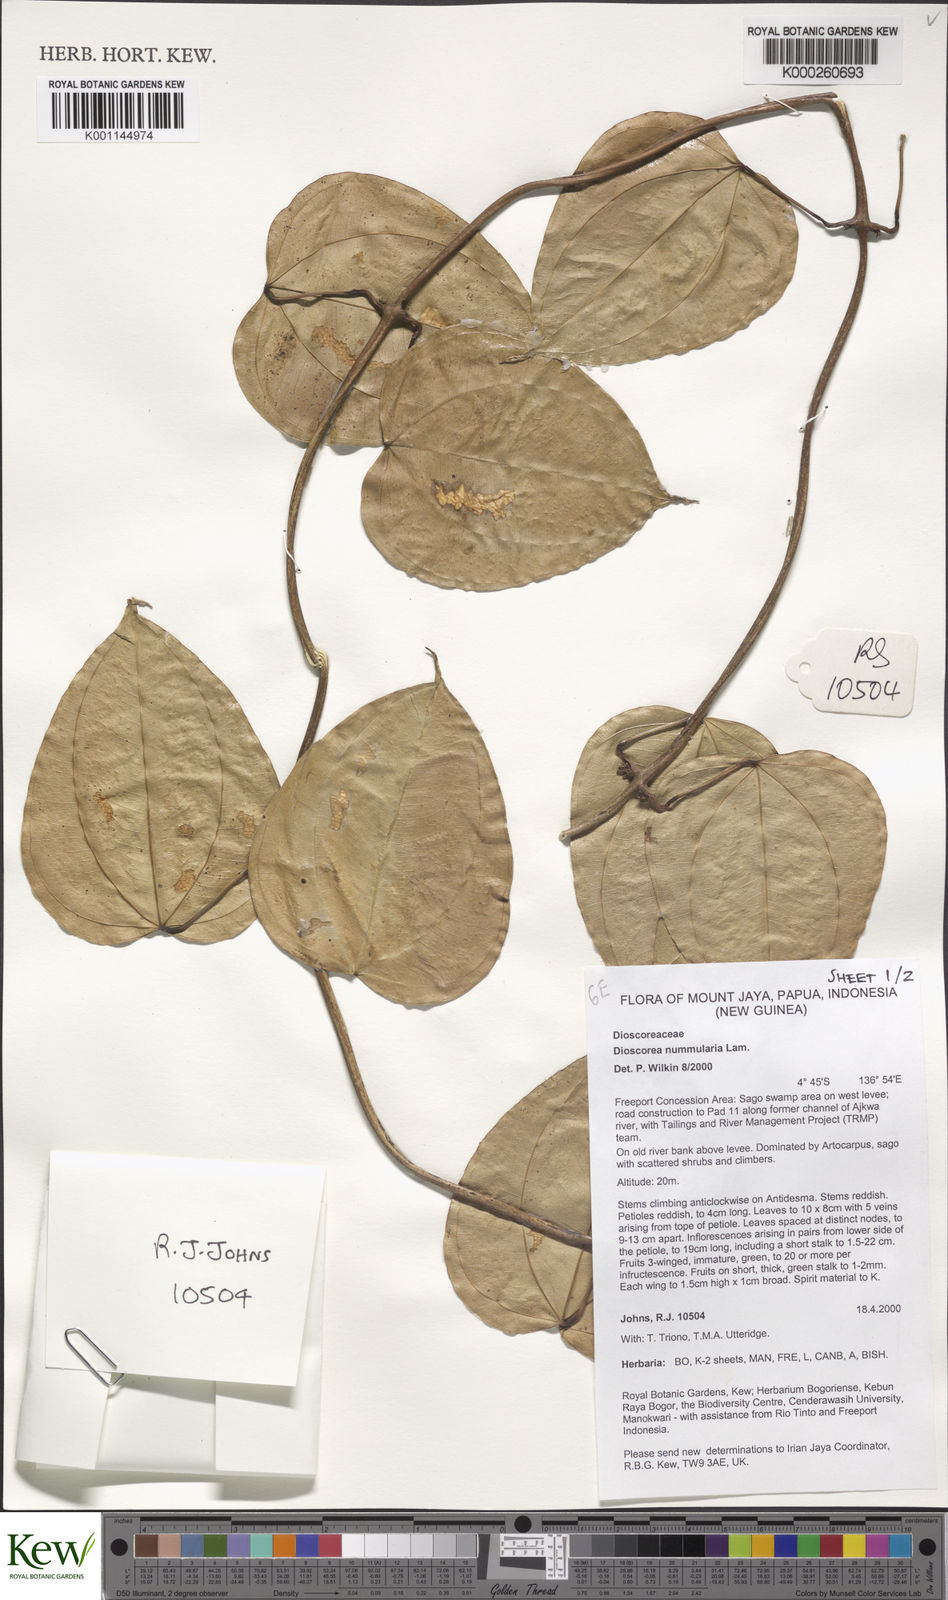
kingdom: Plantae
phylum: Tracheophyta
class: Liliopsida
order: Dioscoreales
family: Dioscoreaceae
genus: Dioscorea
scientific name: Dioscorea nummularia
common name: Pacific yam
